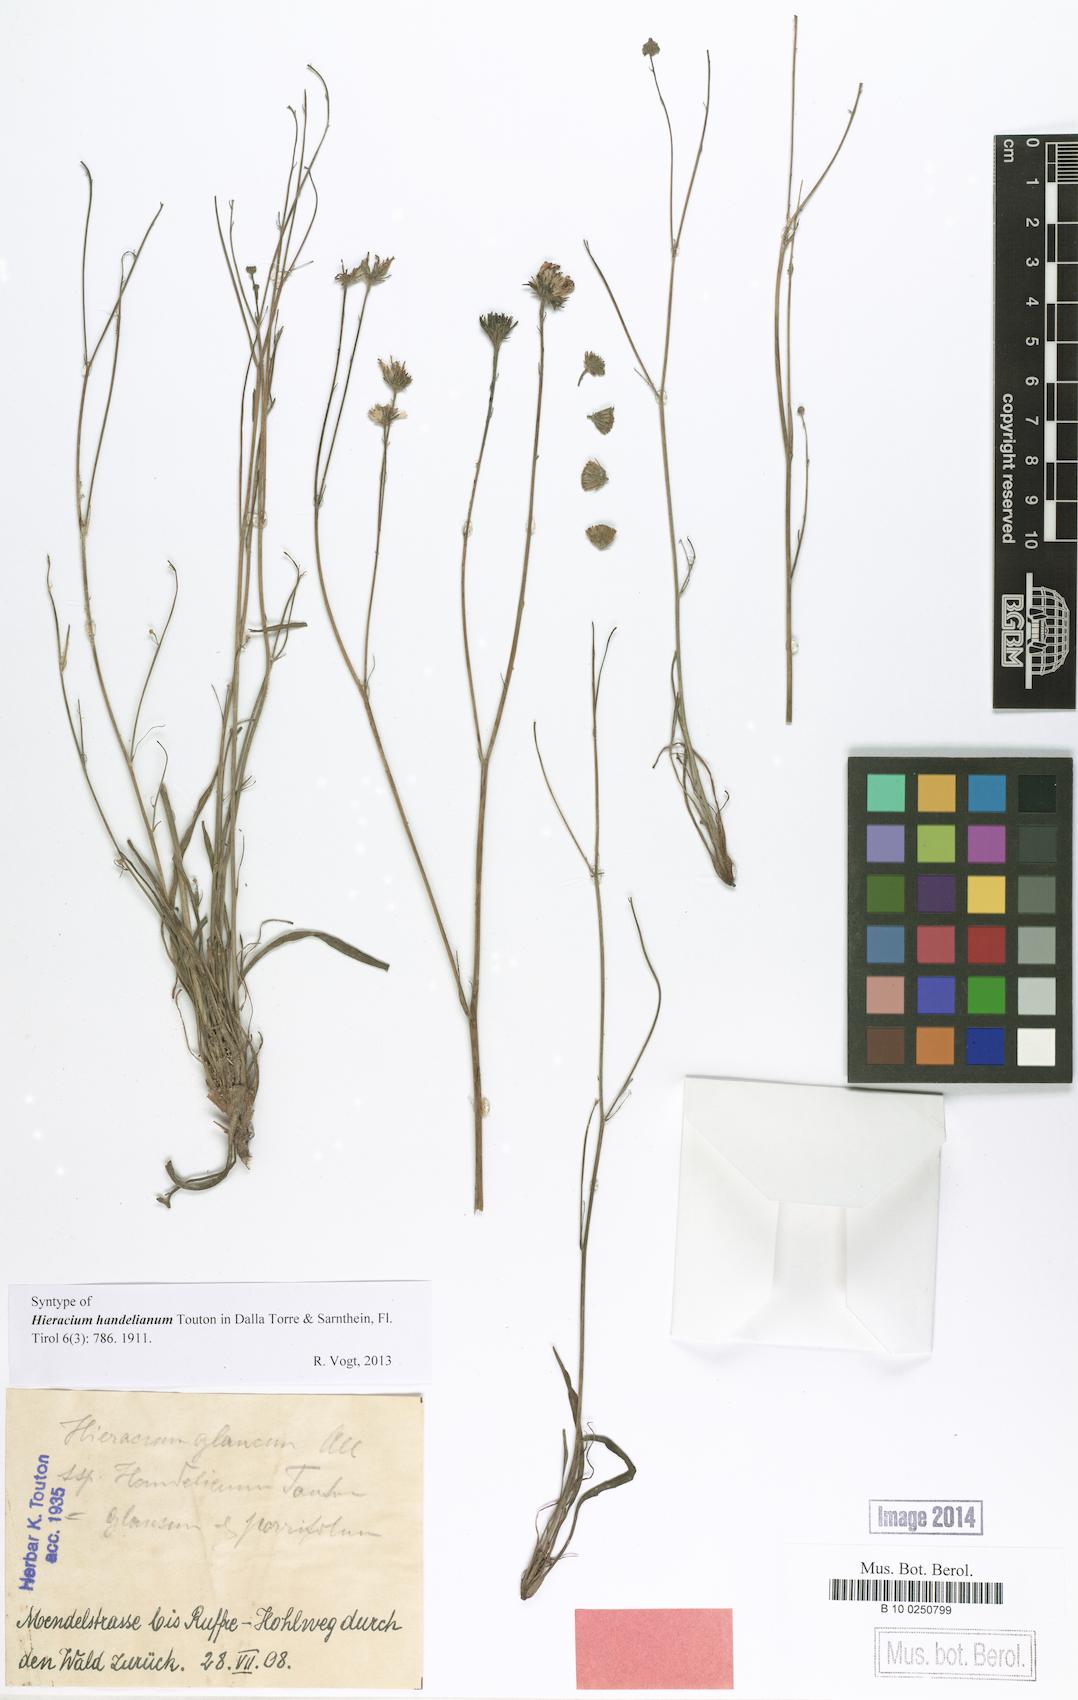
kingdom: Plantae
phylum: Tracheophyta
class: Magnoliopsida
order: Asterales
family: Asteraceae
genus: Hieracium
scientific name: Hieracium handelianum
